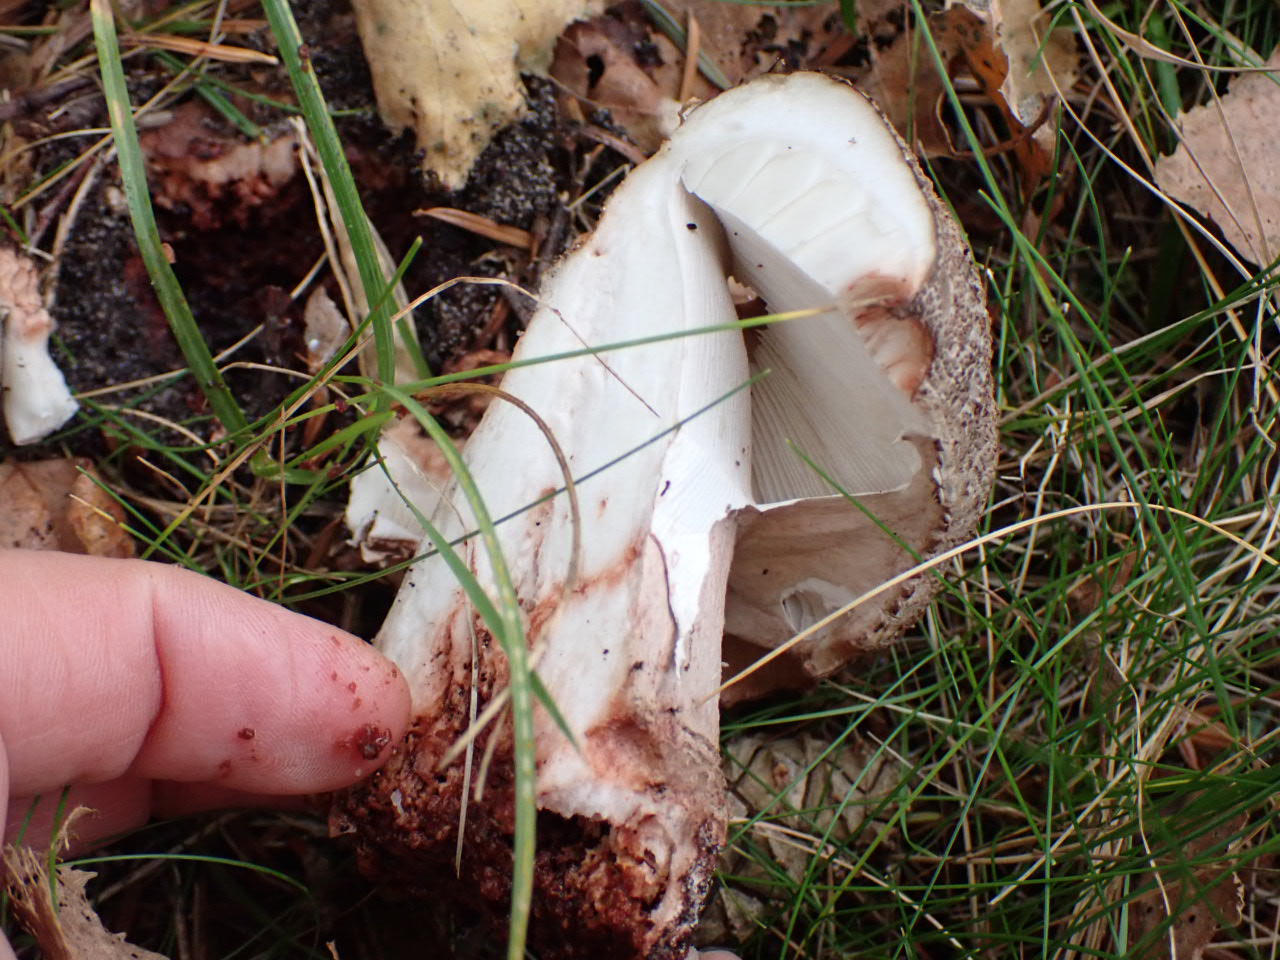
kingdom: Fungi
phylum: Basidiomycota
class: Agaricomycetes
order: Agaricales
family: Amanitaceae
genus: Amanita
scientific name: Amanita rubescens
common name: rødmende fluesvamp
